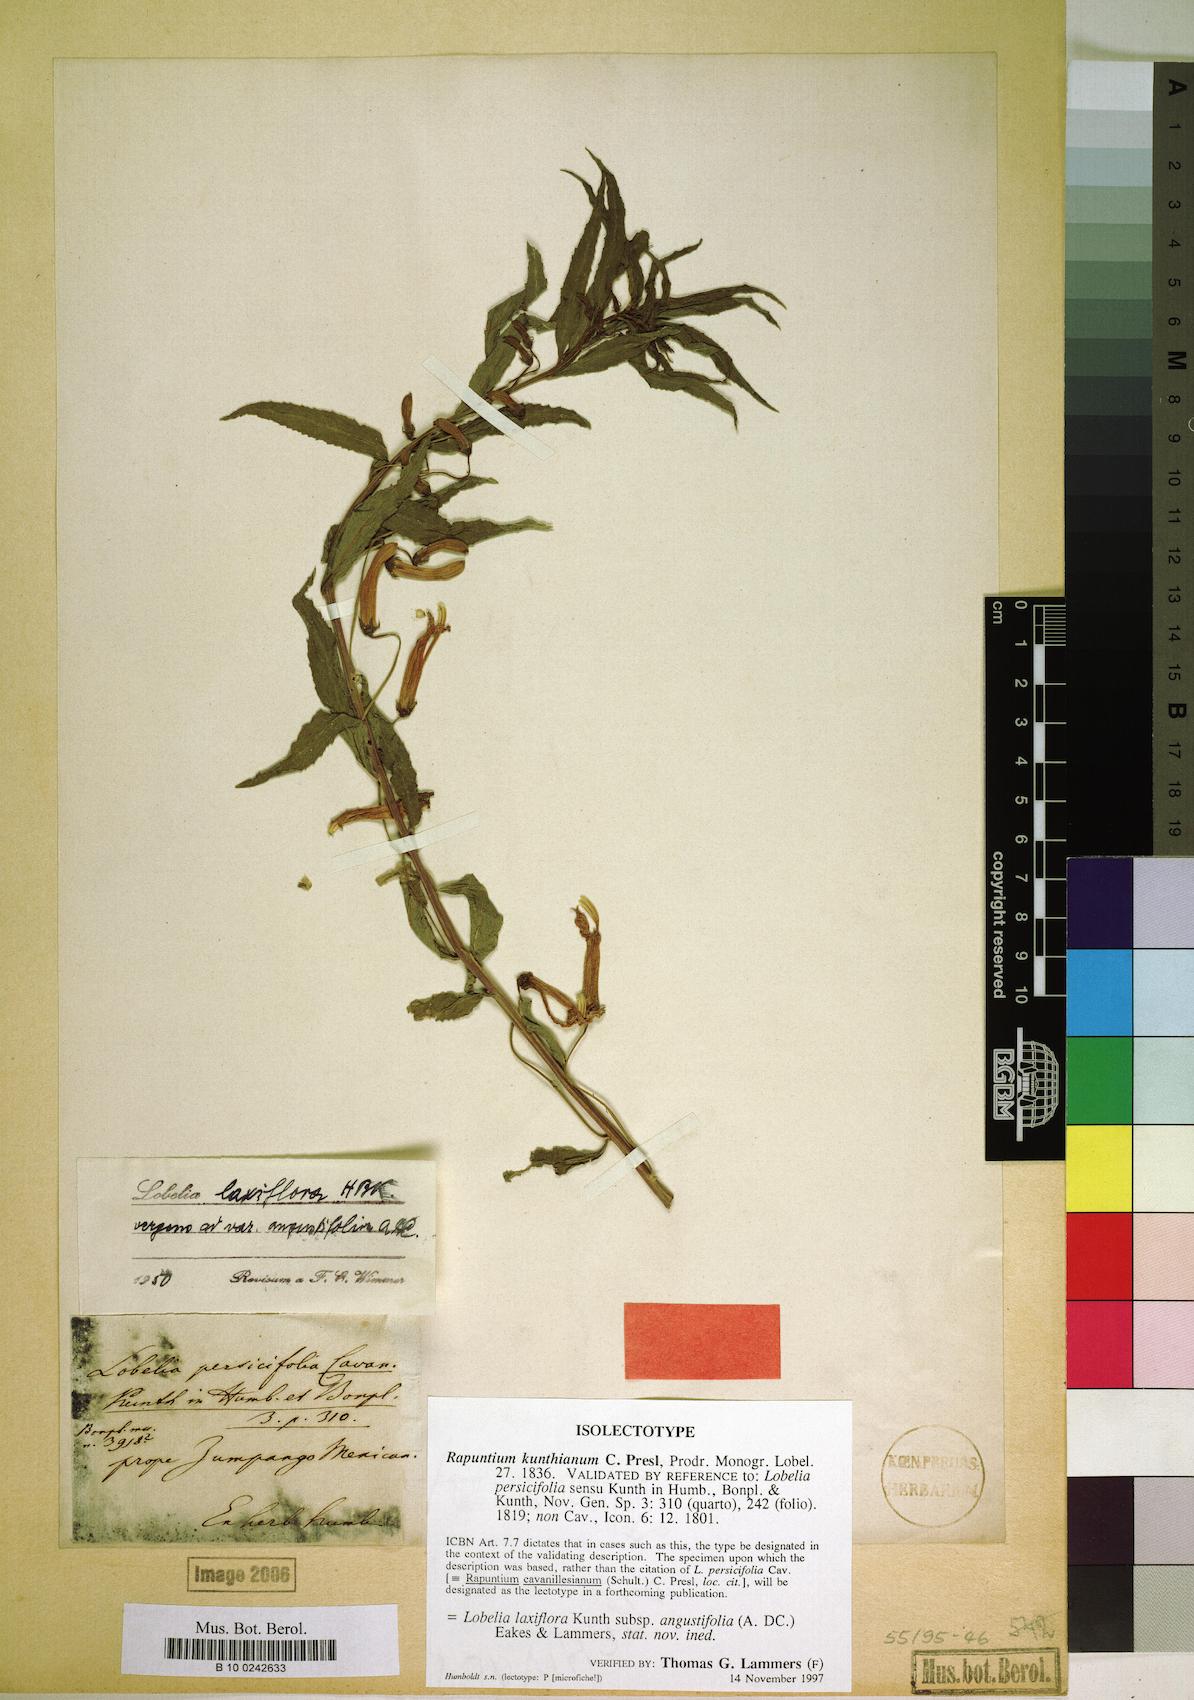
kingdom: Plantae
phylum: Tracheophyta
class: Magnoliopsida
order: Asterales
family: Campanulaceae
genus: Lobelia
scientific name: Lobelia laxiflora
